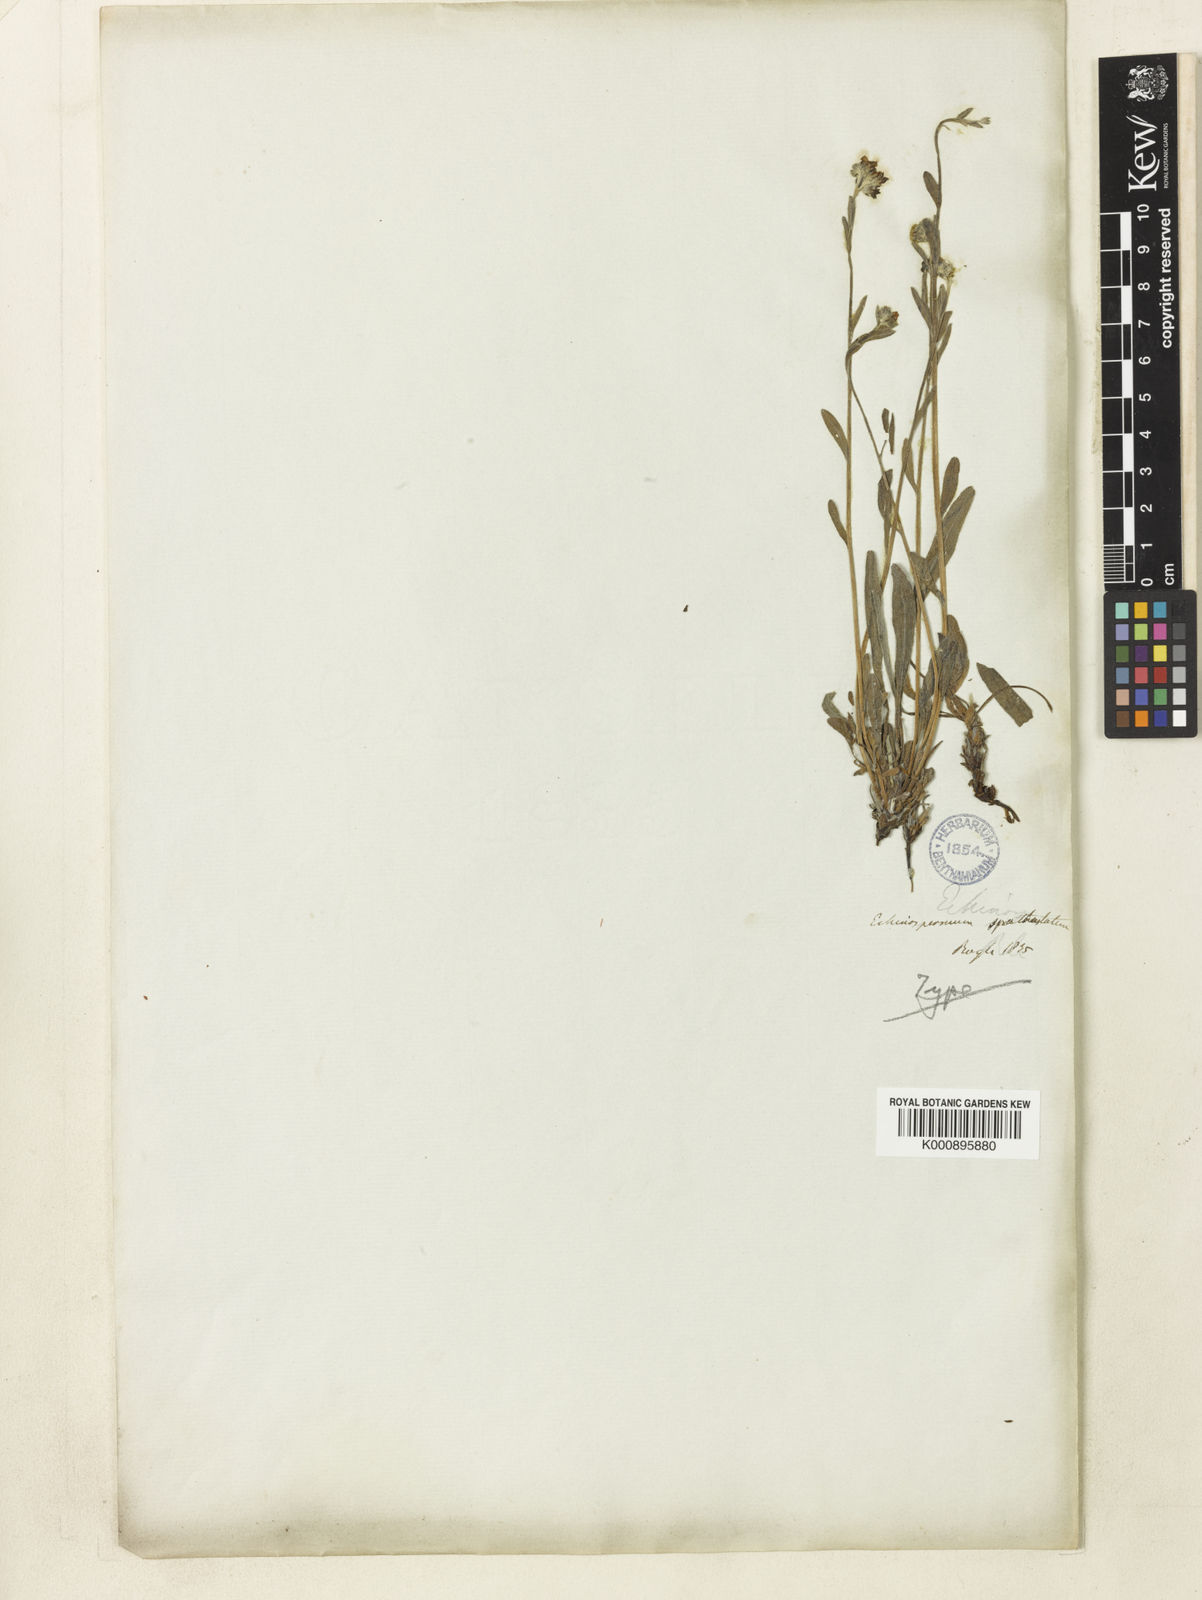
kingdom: Plantae
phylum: Tracheophyta
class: Magnoliopsida
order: Boraginales
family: Boraginaceae
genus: Eritrichium
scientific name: Eritrichium spathulatum
